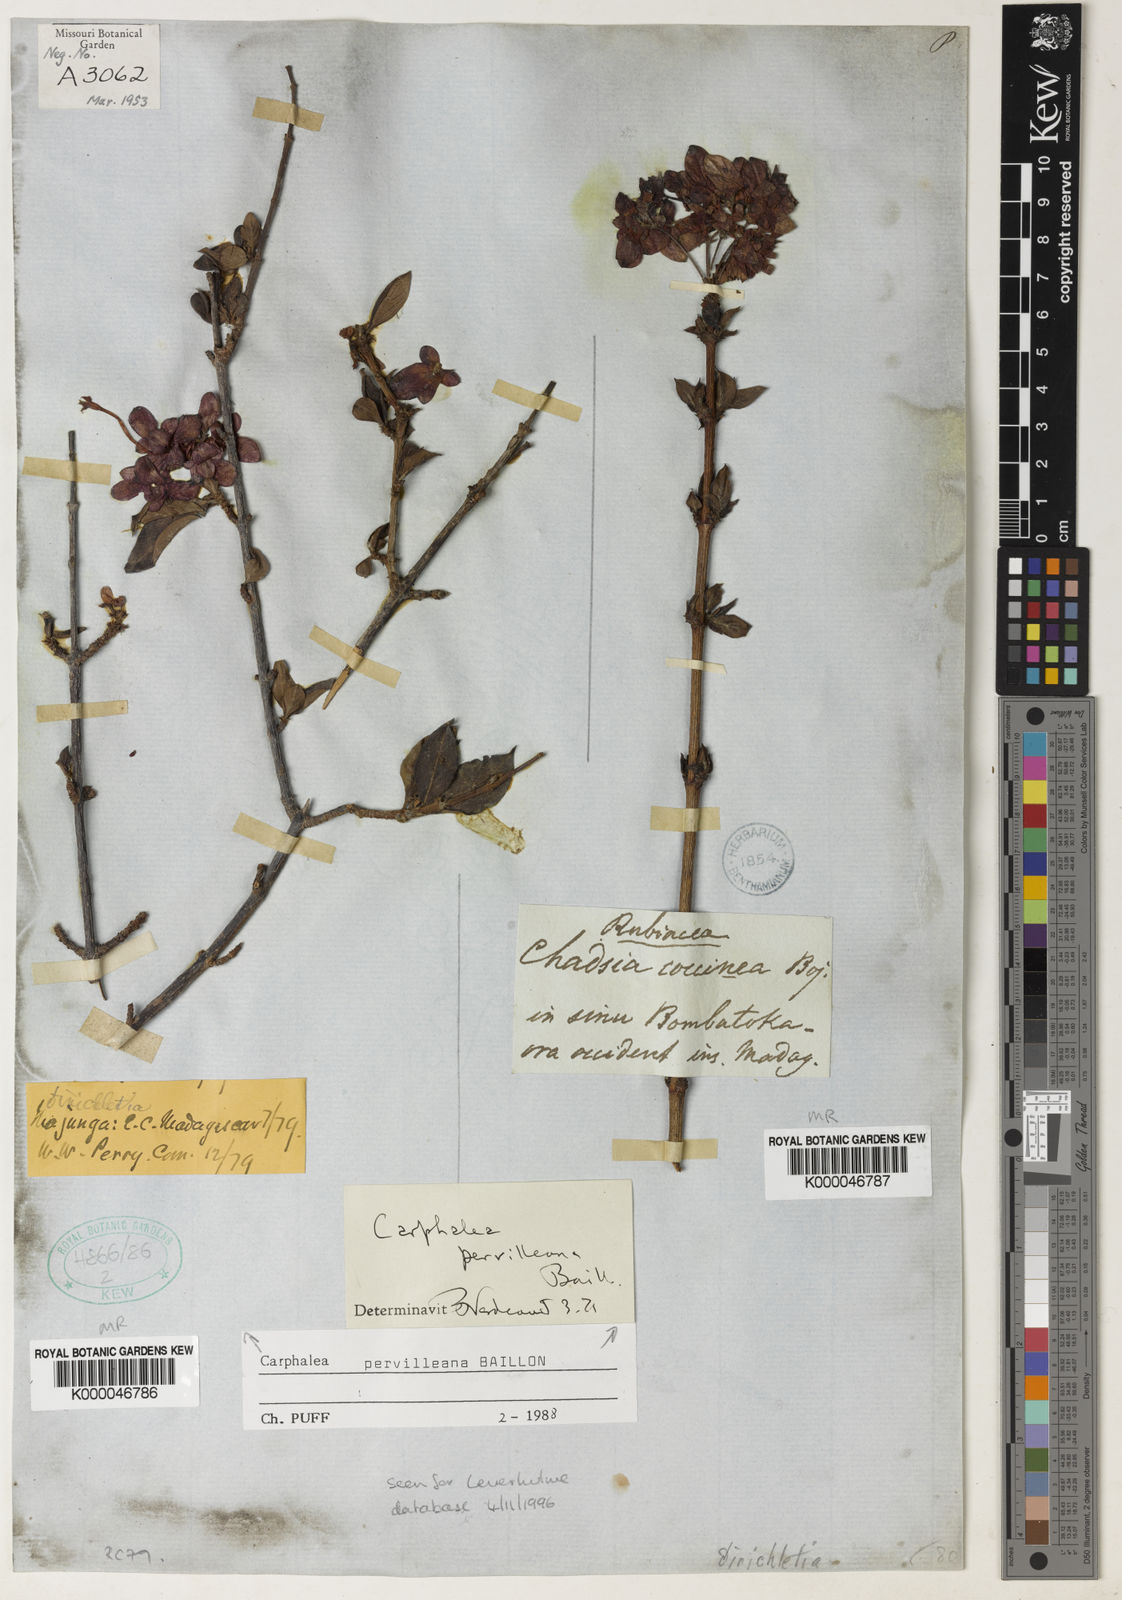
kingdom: Plantae
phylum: Tracheophyta
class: Magnoliopsida
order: Gentianales
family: Rubiaceae
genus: Paracarphalea
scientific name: Paracarphalea pervilleana
